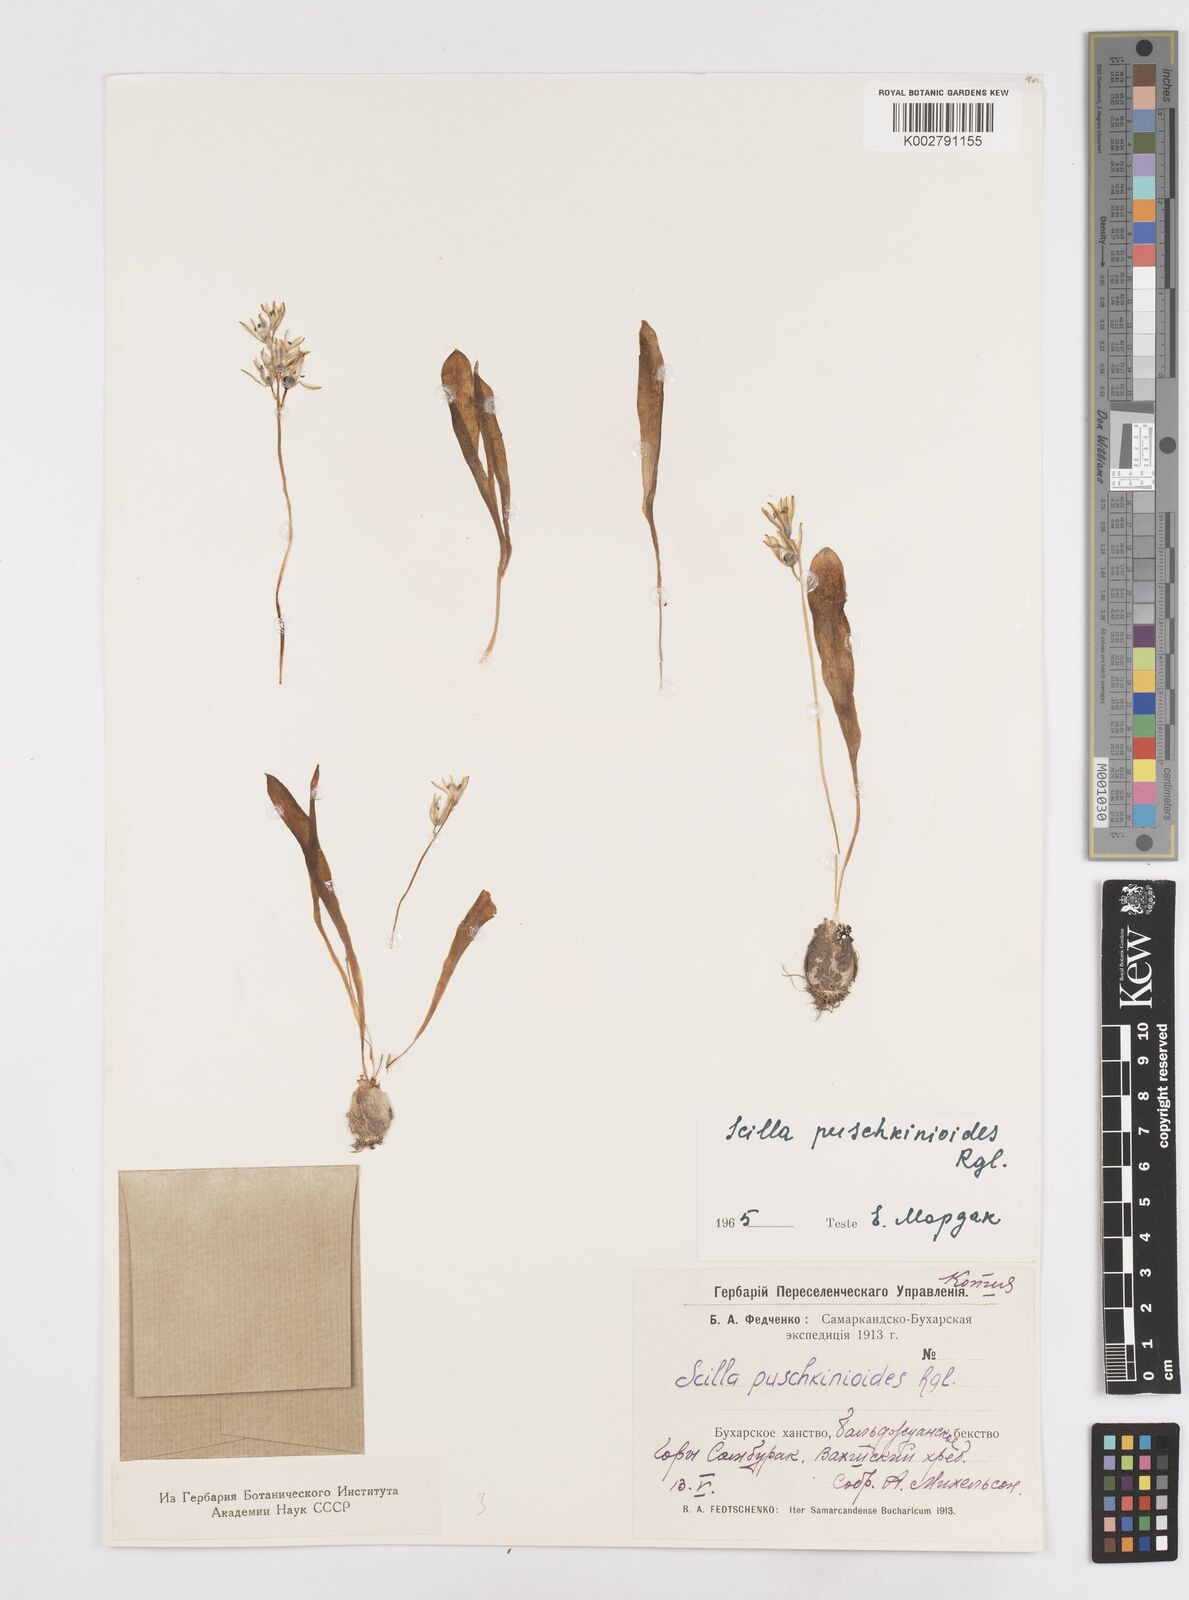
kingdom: Plantae
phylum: Tracheophyta
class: Liliopsida
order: Asparagales
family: Asparagaceae
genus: Fessia
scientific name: Fessia puschkinioides
